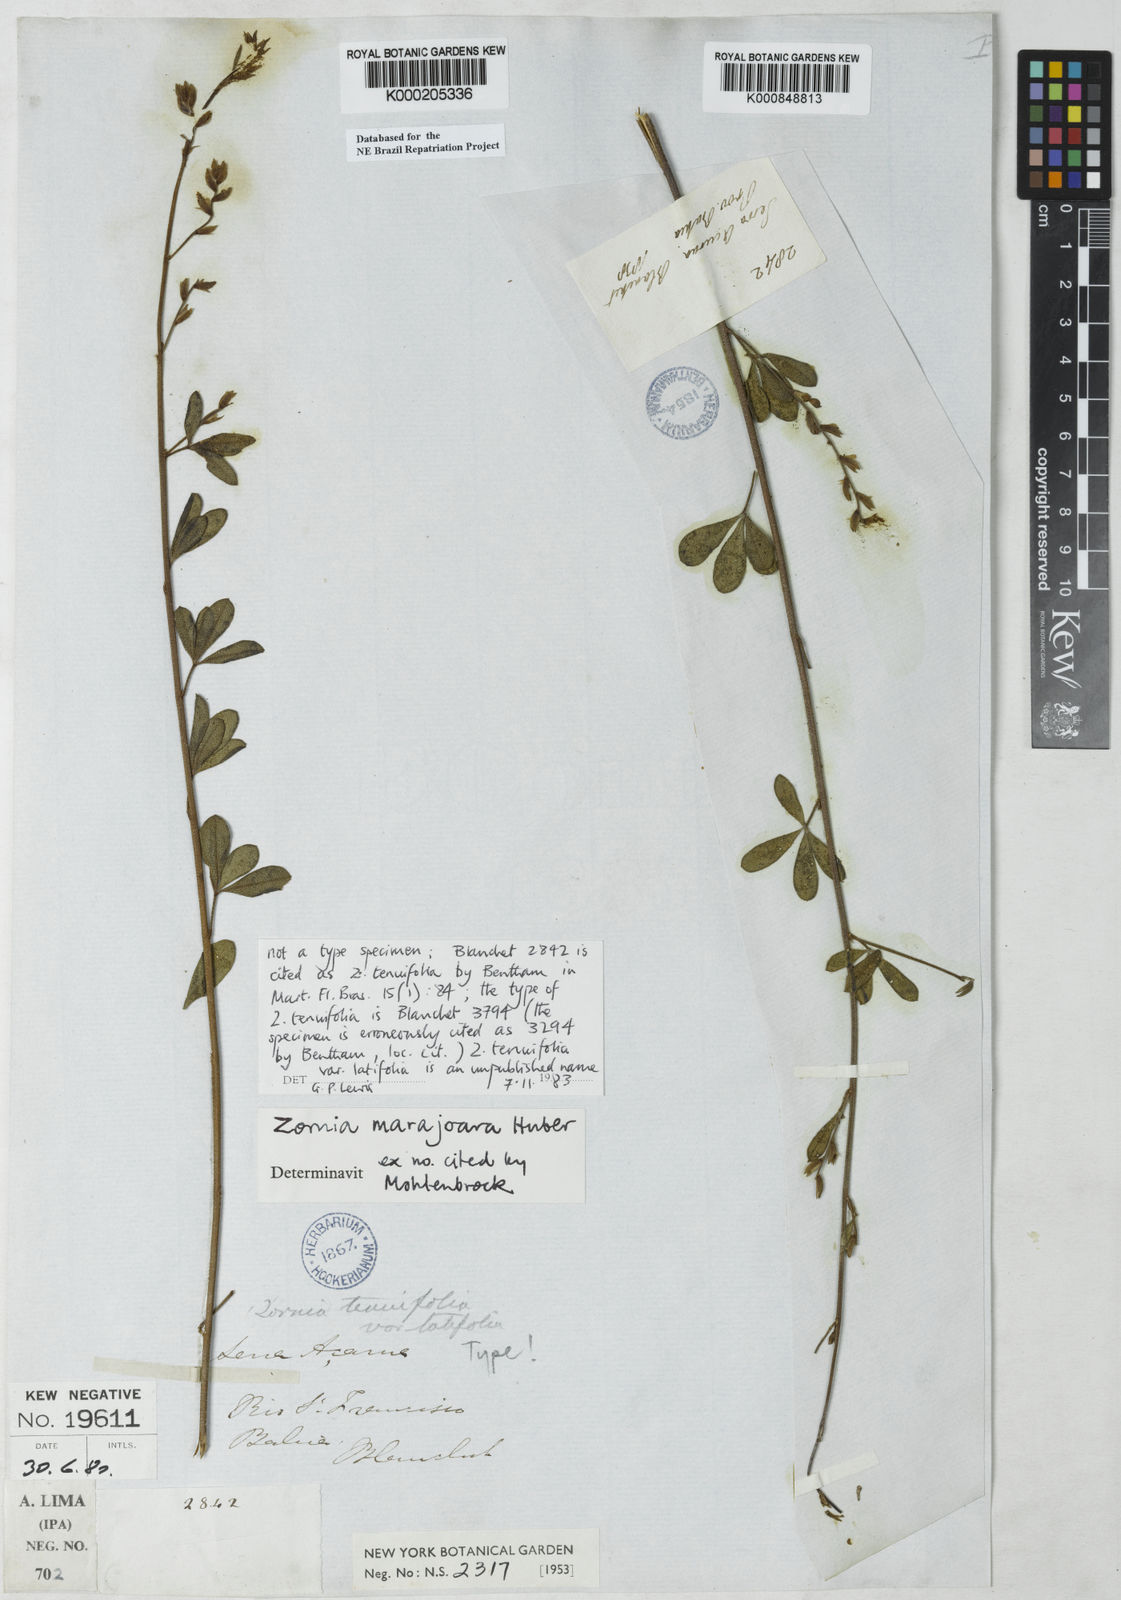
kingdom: Plantae
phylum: Tracheophyta
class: Magnoliopsida
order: Fabales
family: Fabaceae
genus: Zornia
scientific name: Zornia guanipensis
